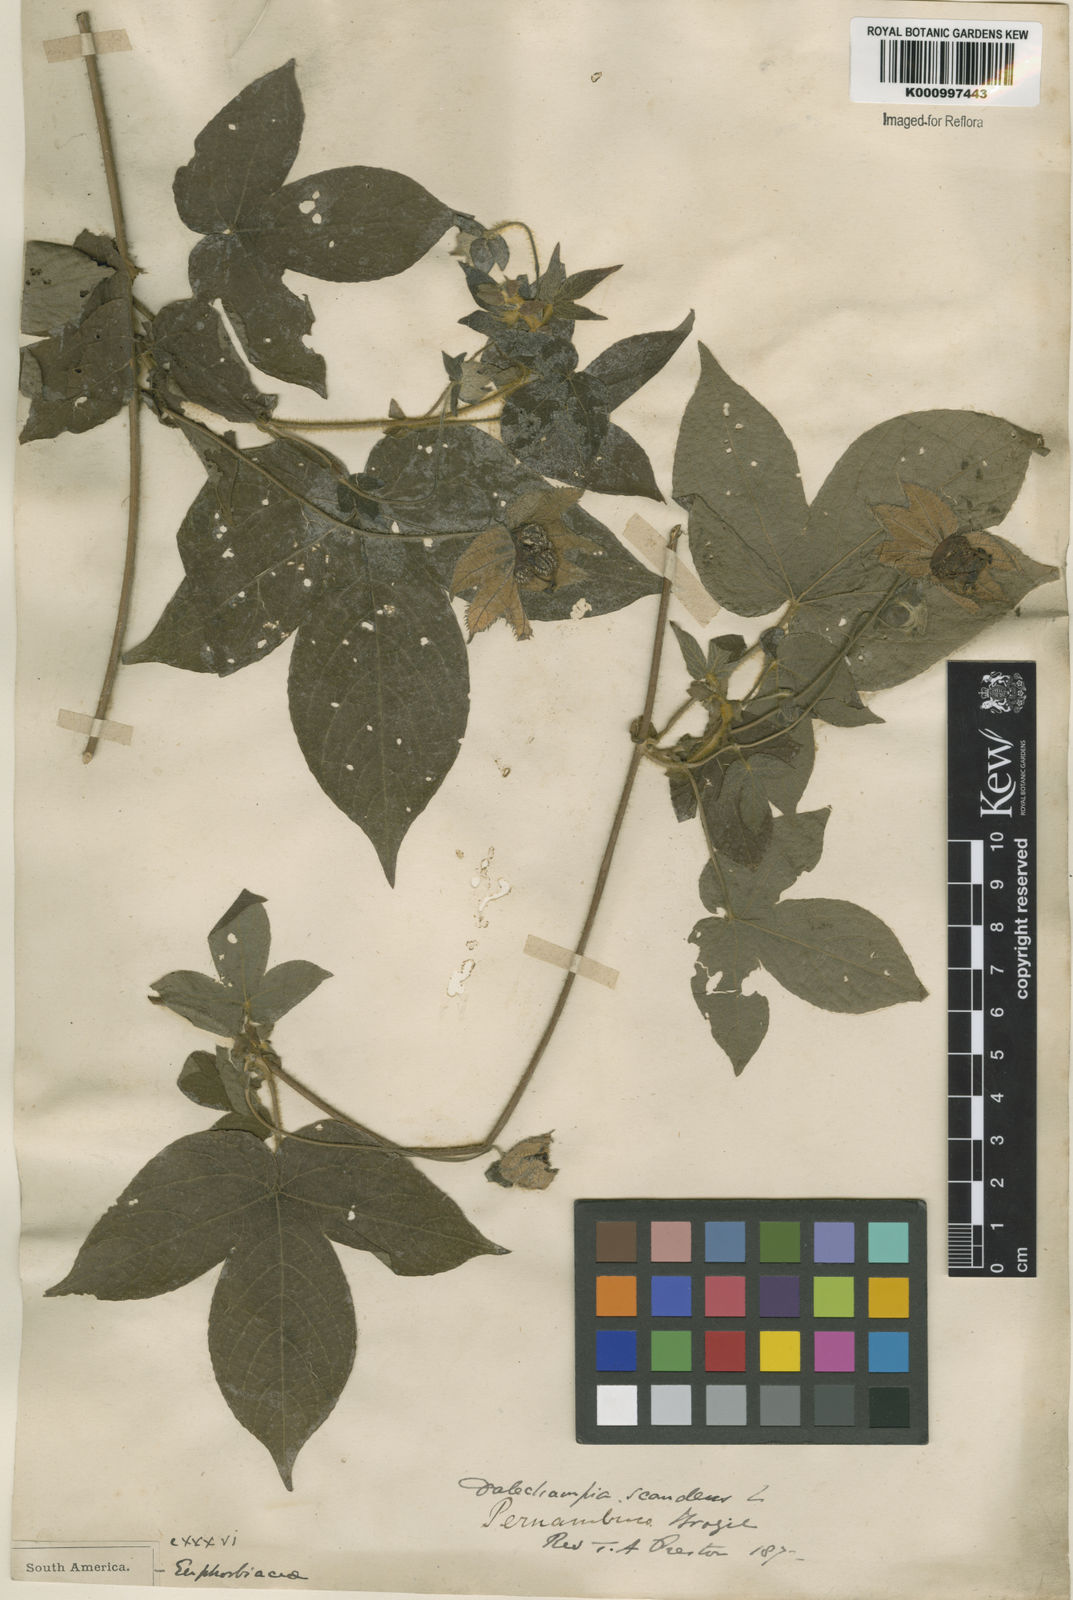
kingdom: Plantae
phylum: Tracheophyta
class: Magnoliopsida
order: Malpighiales
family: Euphorbiaceae
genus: Dalechampia
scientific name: Dalechampia scandens
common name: Spurgecreeper
